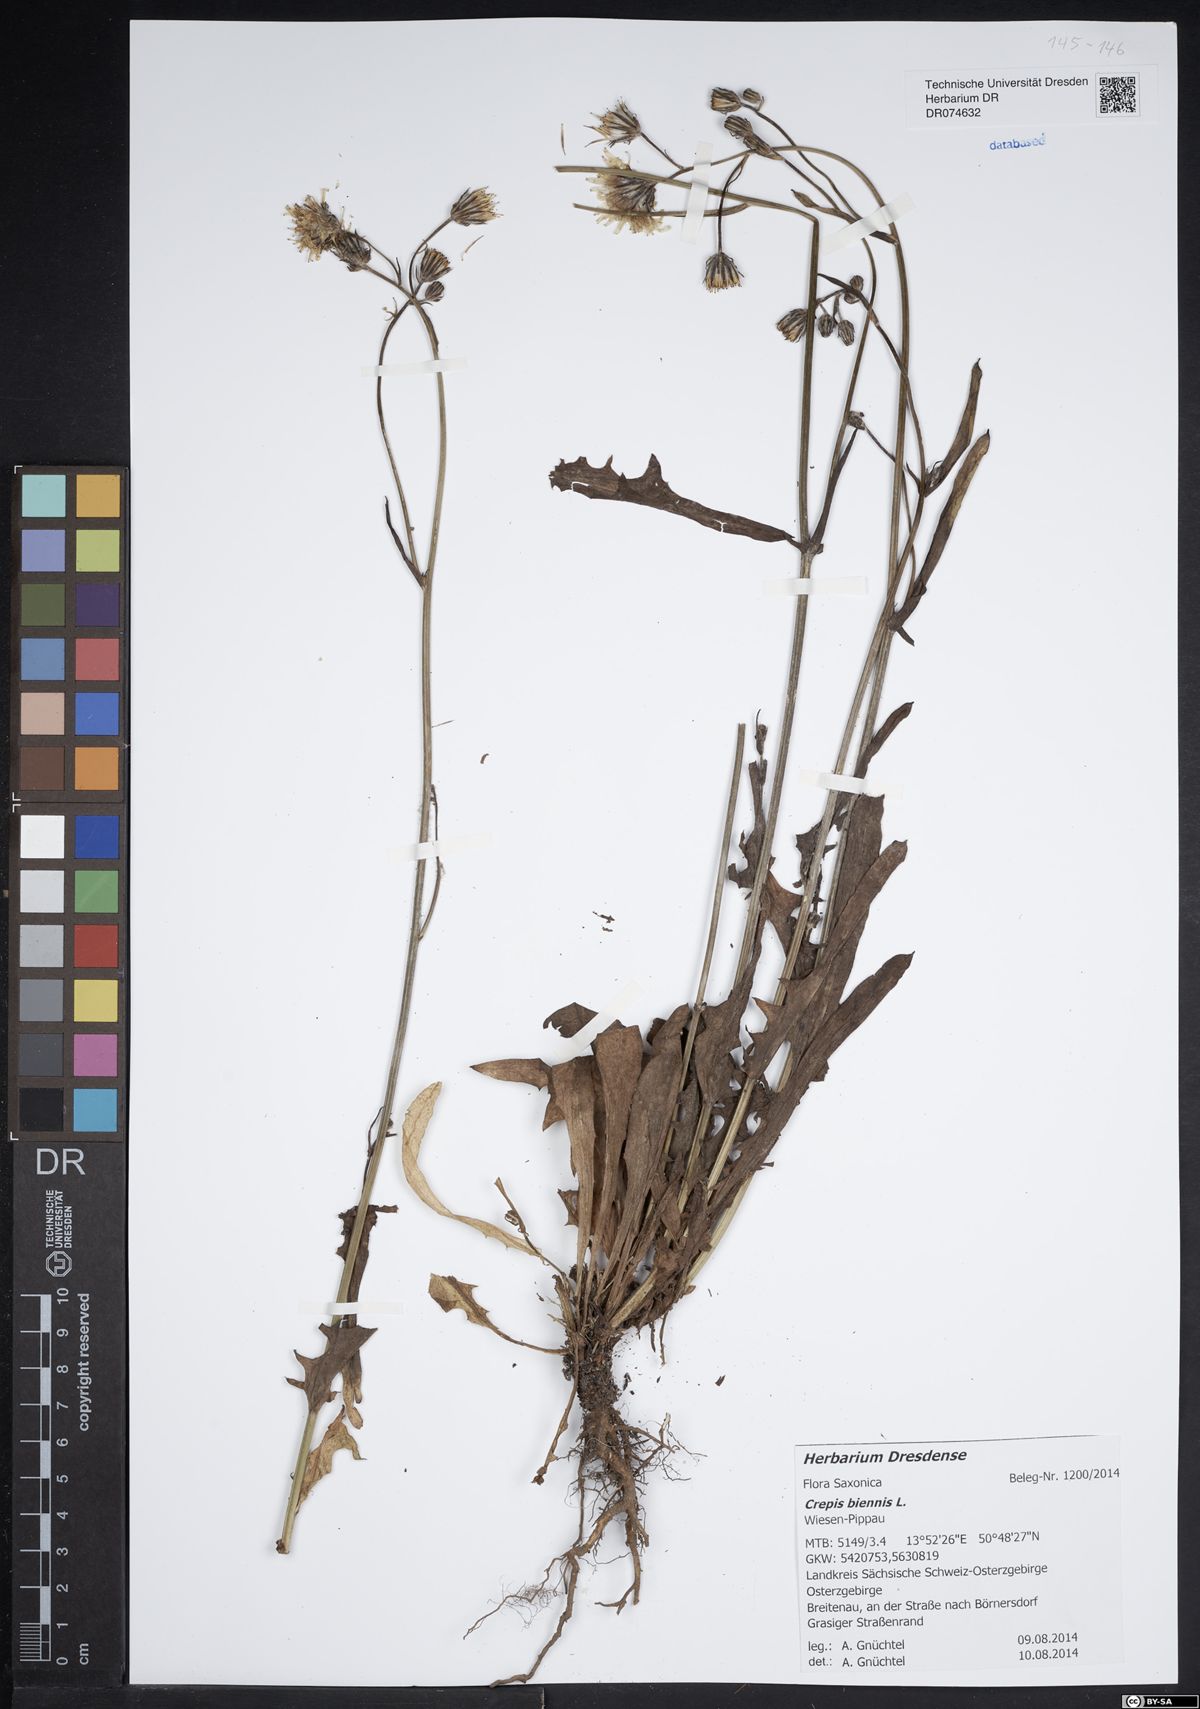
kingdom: Plantae
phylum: Tracheophyta
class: Magnoliopsida
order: Asterales
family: Asteraceae
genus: Crepis
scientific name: Crepis biennis
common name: Rough hawk's-beard
